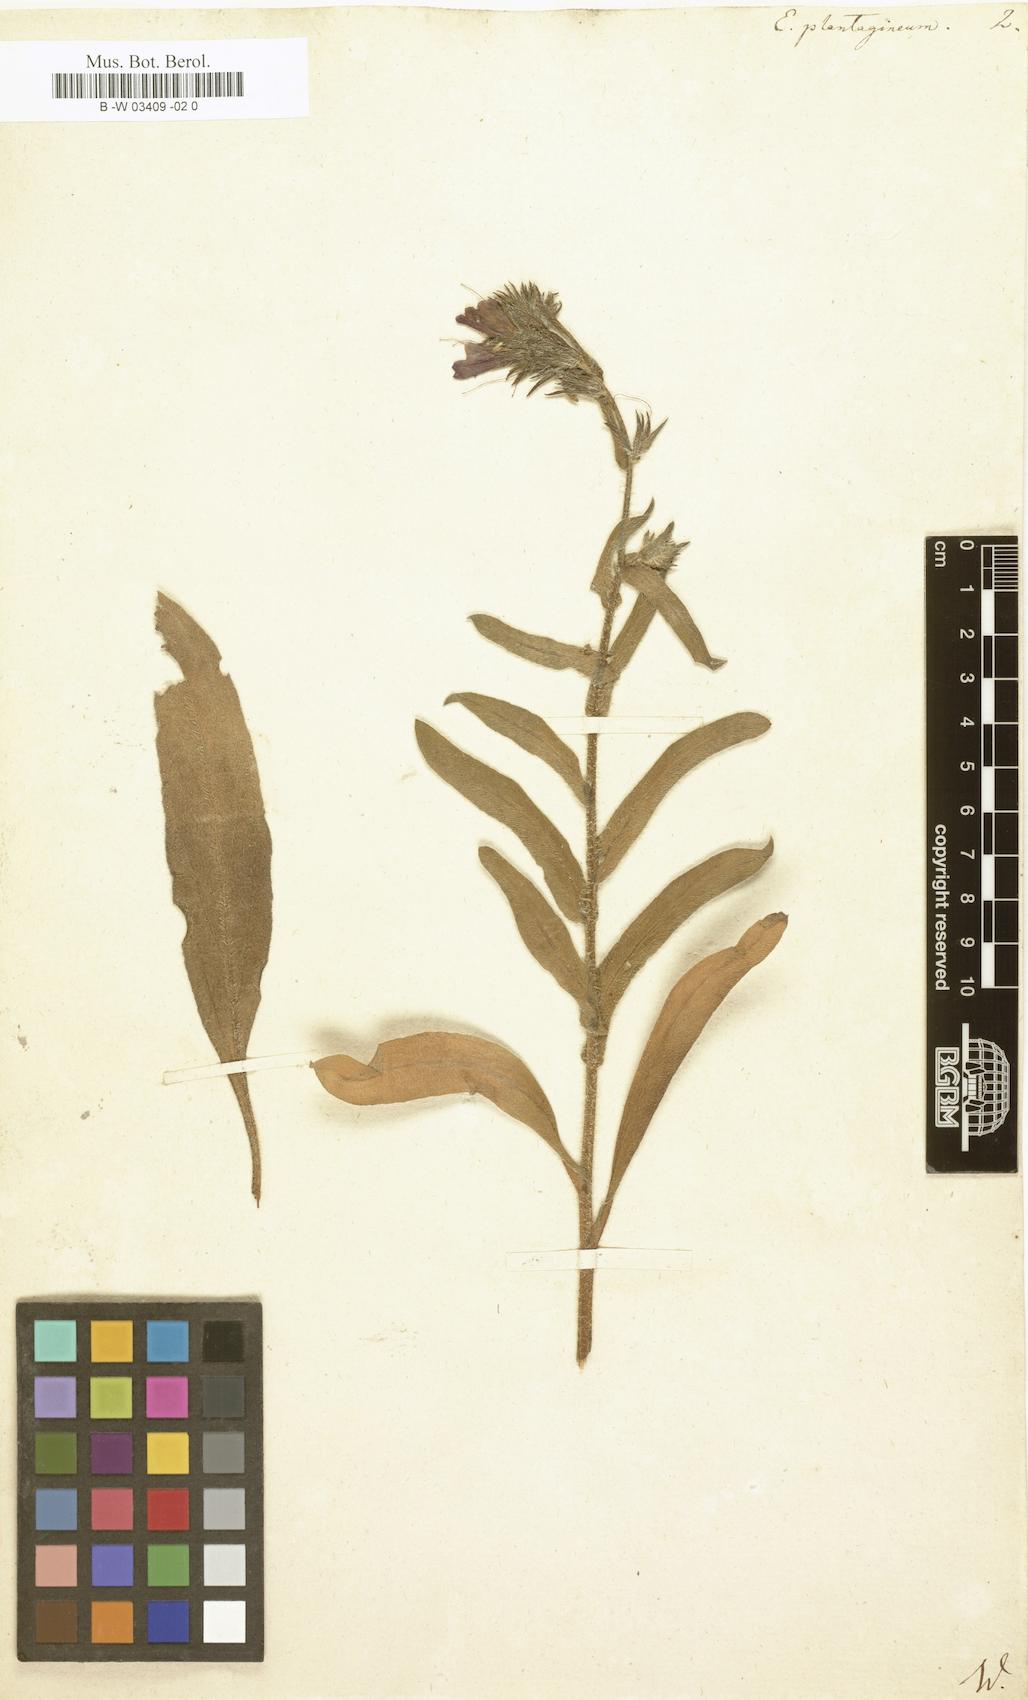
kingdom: Plantae
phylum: Tracheophyta
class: Magnoliopsida
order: Boraginales
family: Boraginaceae
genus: Echium
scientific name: Echium plantagineum
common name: Purple viper's-bugloss
